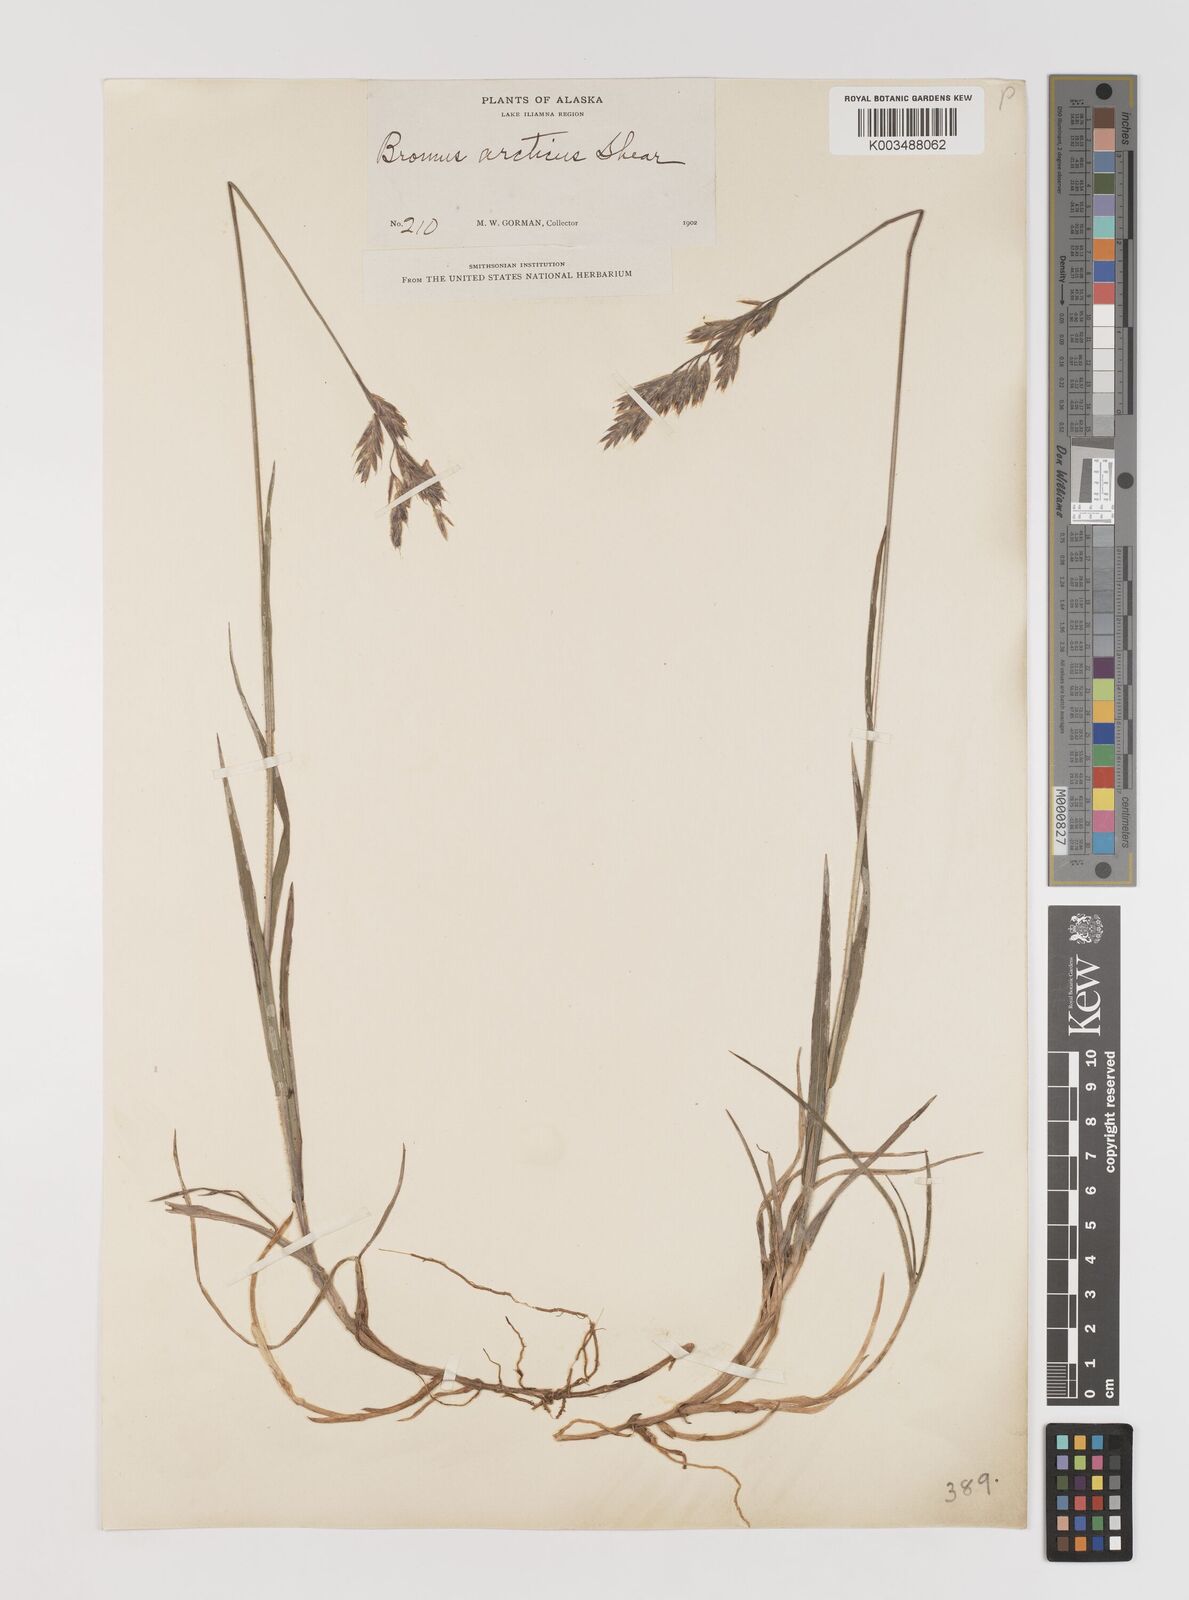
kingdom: Plantae
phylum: Tracheophyta
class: Liliopsida
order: Poales
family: Poaceae
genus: Bromus
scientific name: Bromus pumpellianus
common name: Pumpelly's brome
